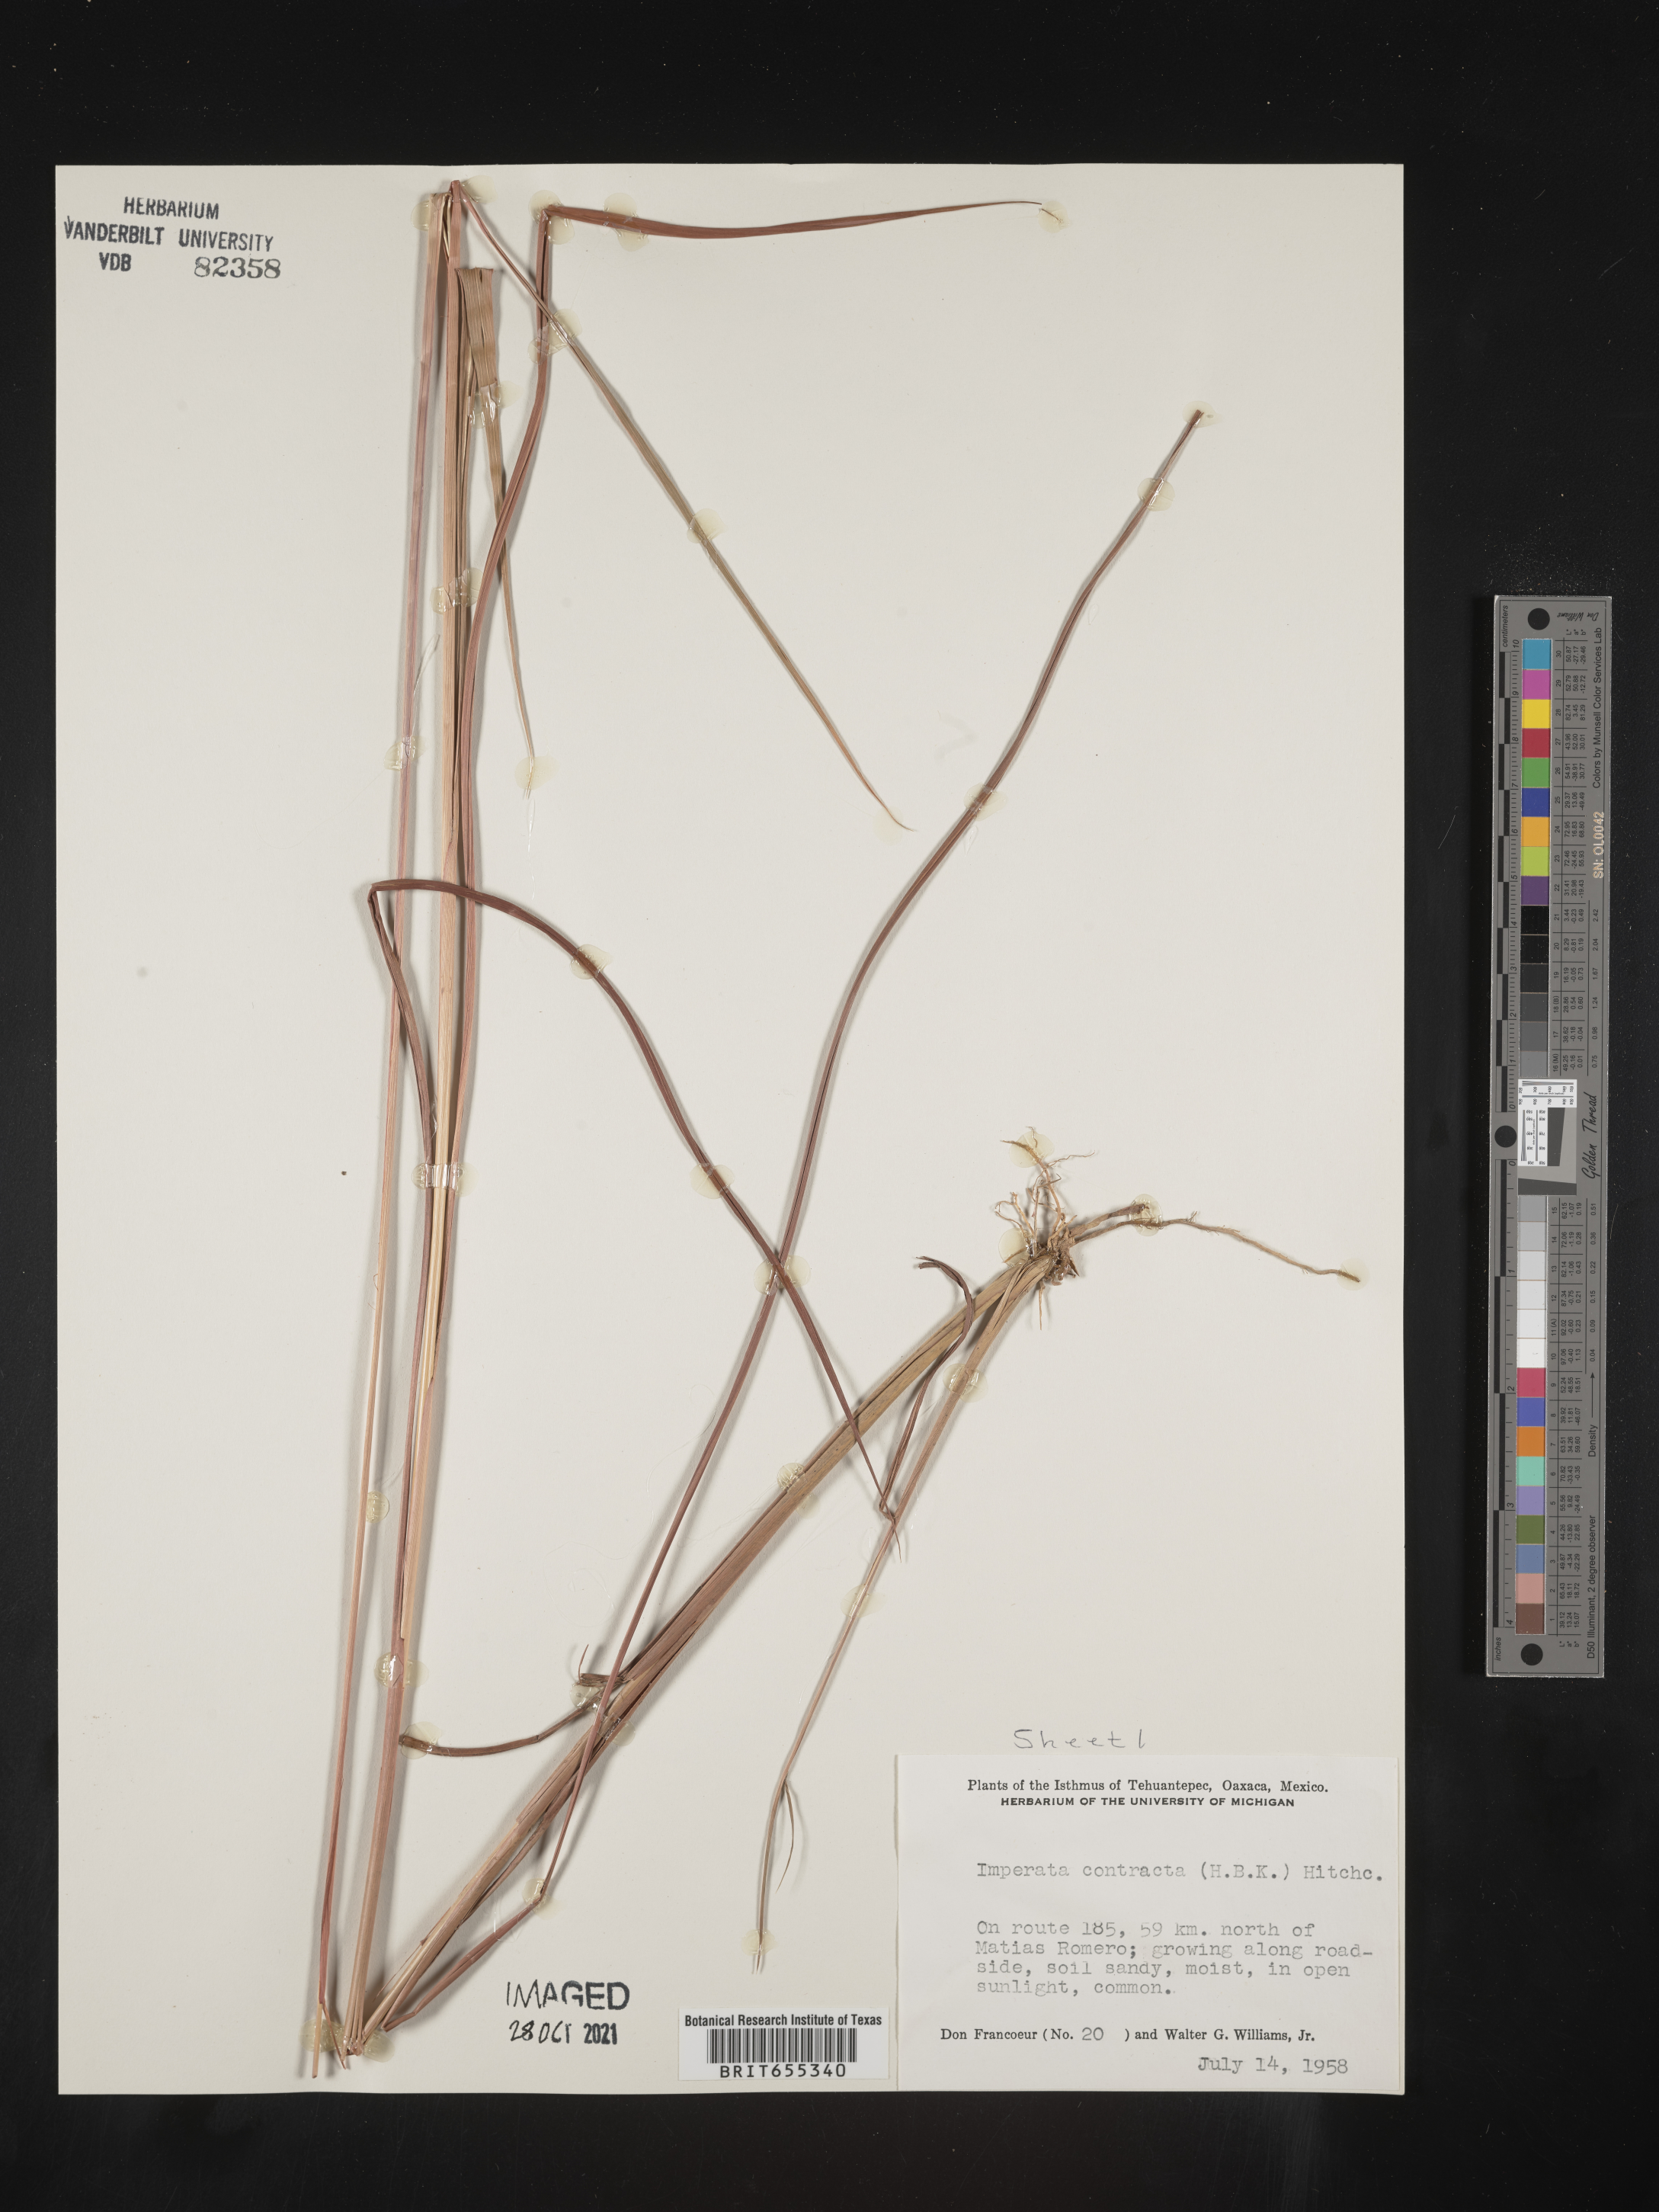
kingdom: Plantae
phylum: Tracheophyta
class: Liliopsida
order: Poales
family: Poaceae
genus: Imperata
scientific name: Imperata
